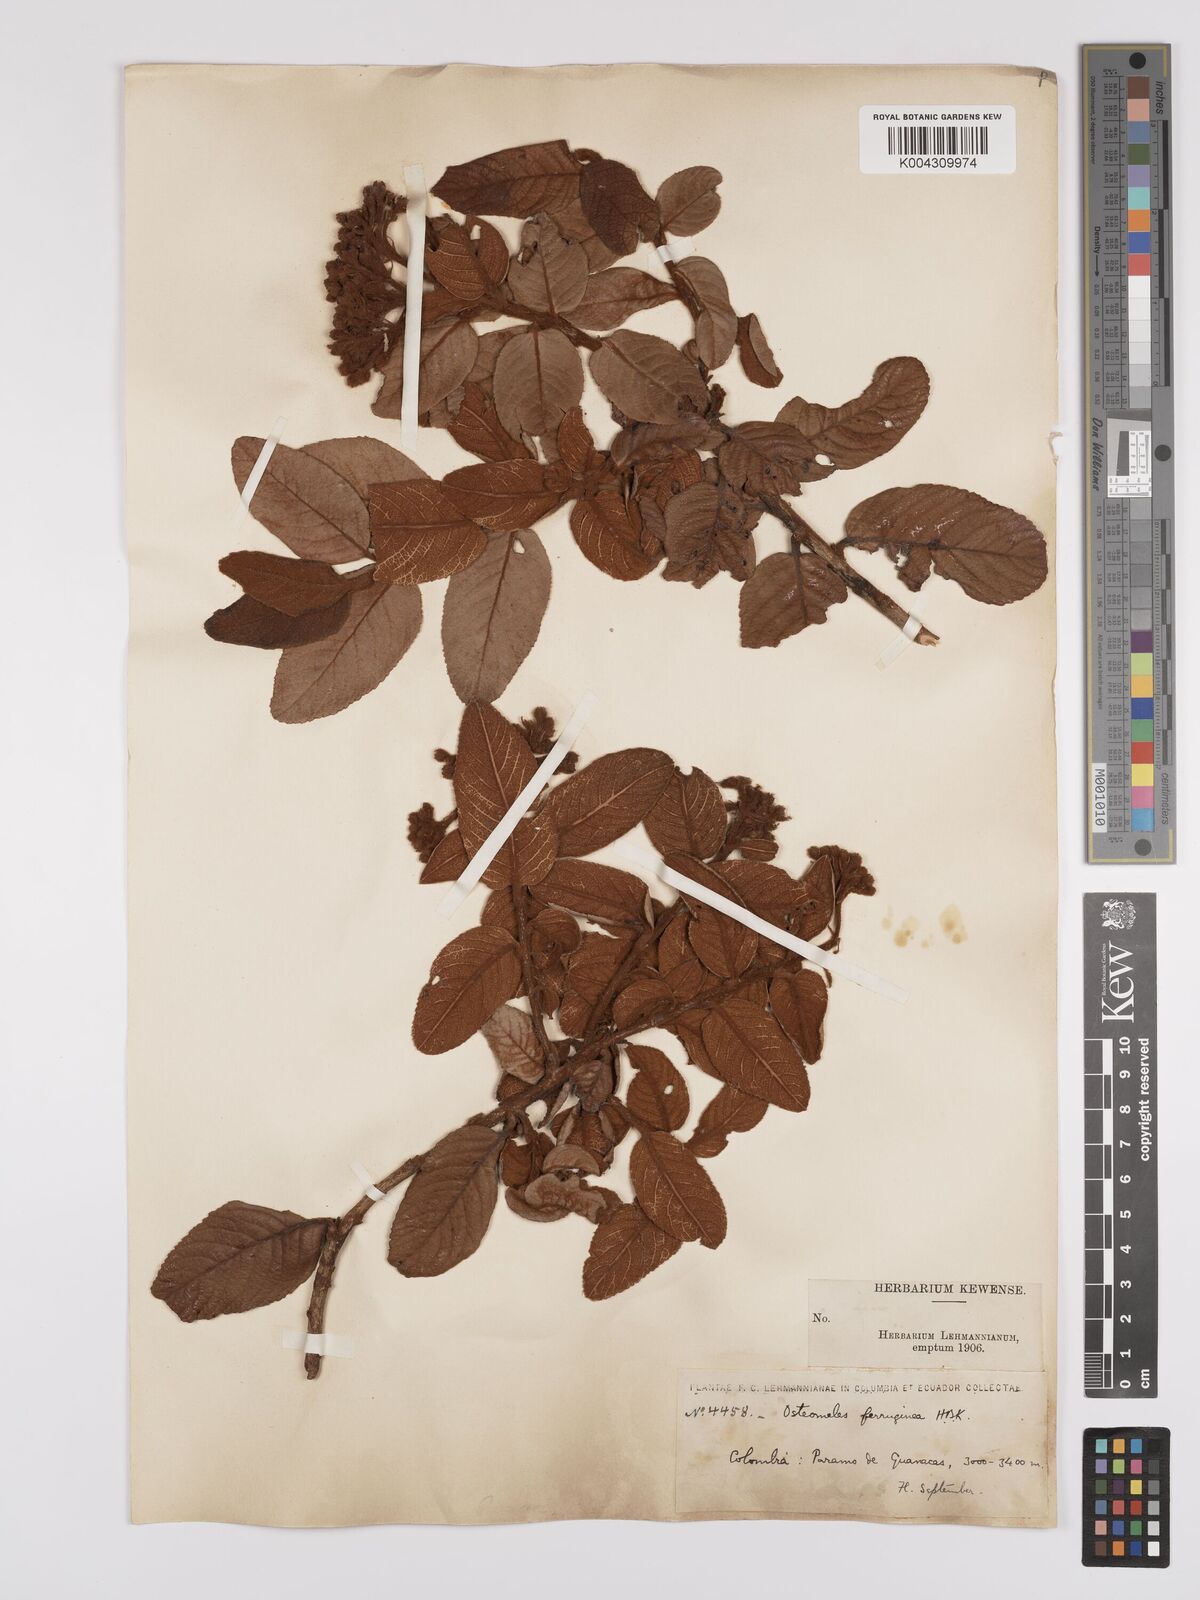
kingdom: Plantae
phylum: Tracheophyta
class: Magnoliopsida
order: Rosales
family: Rosaceae
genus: Hesperomeles
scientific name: Hesperomeles ferruginea
